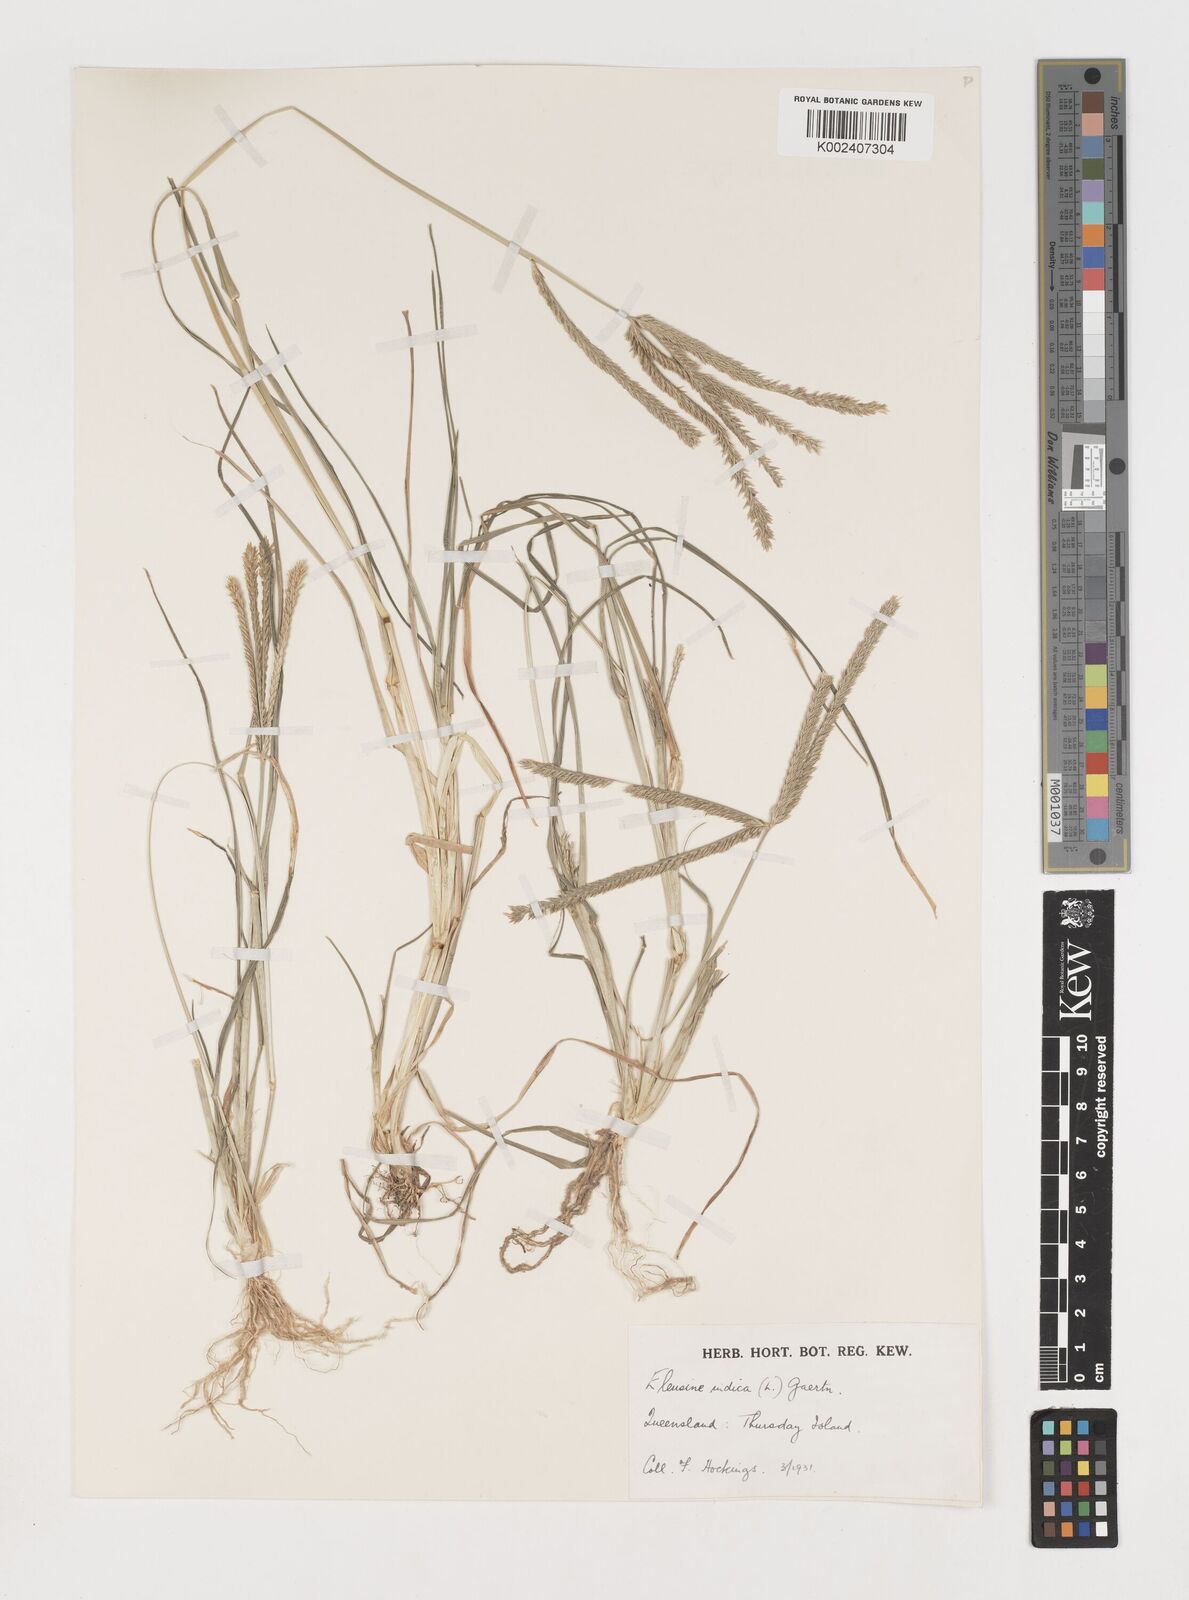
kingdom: Plantae
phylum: Tracheophyta
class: Liliopsida
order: Poales
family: Poaceae
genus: Eleusine
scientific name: Eleusine indica
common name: Yard-grass
